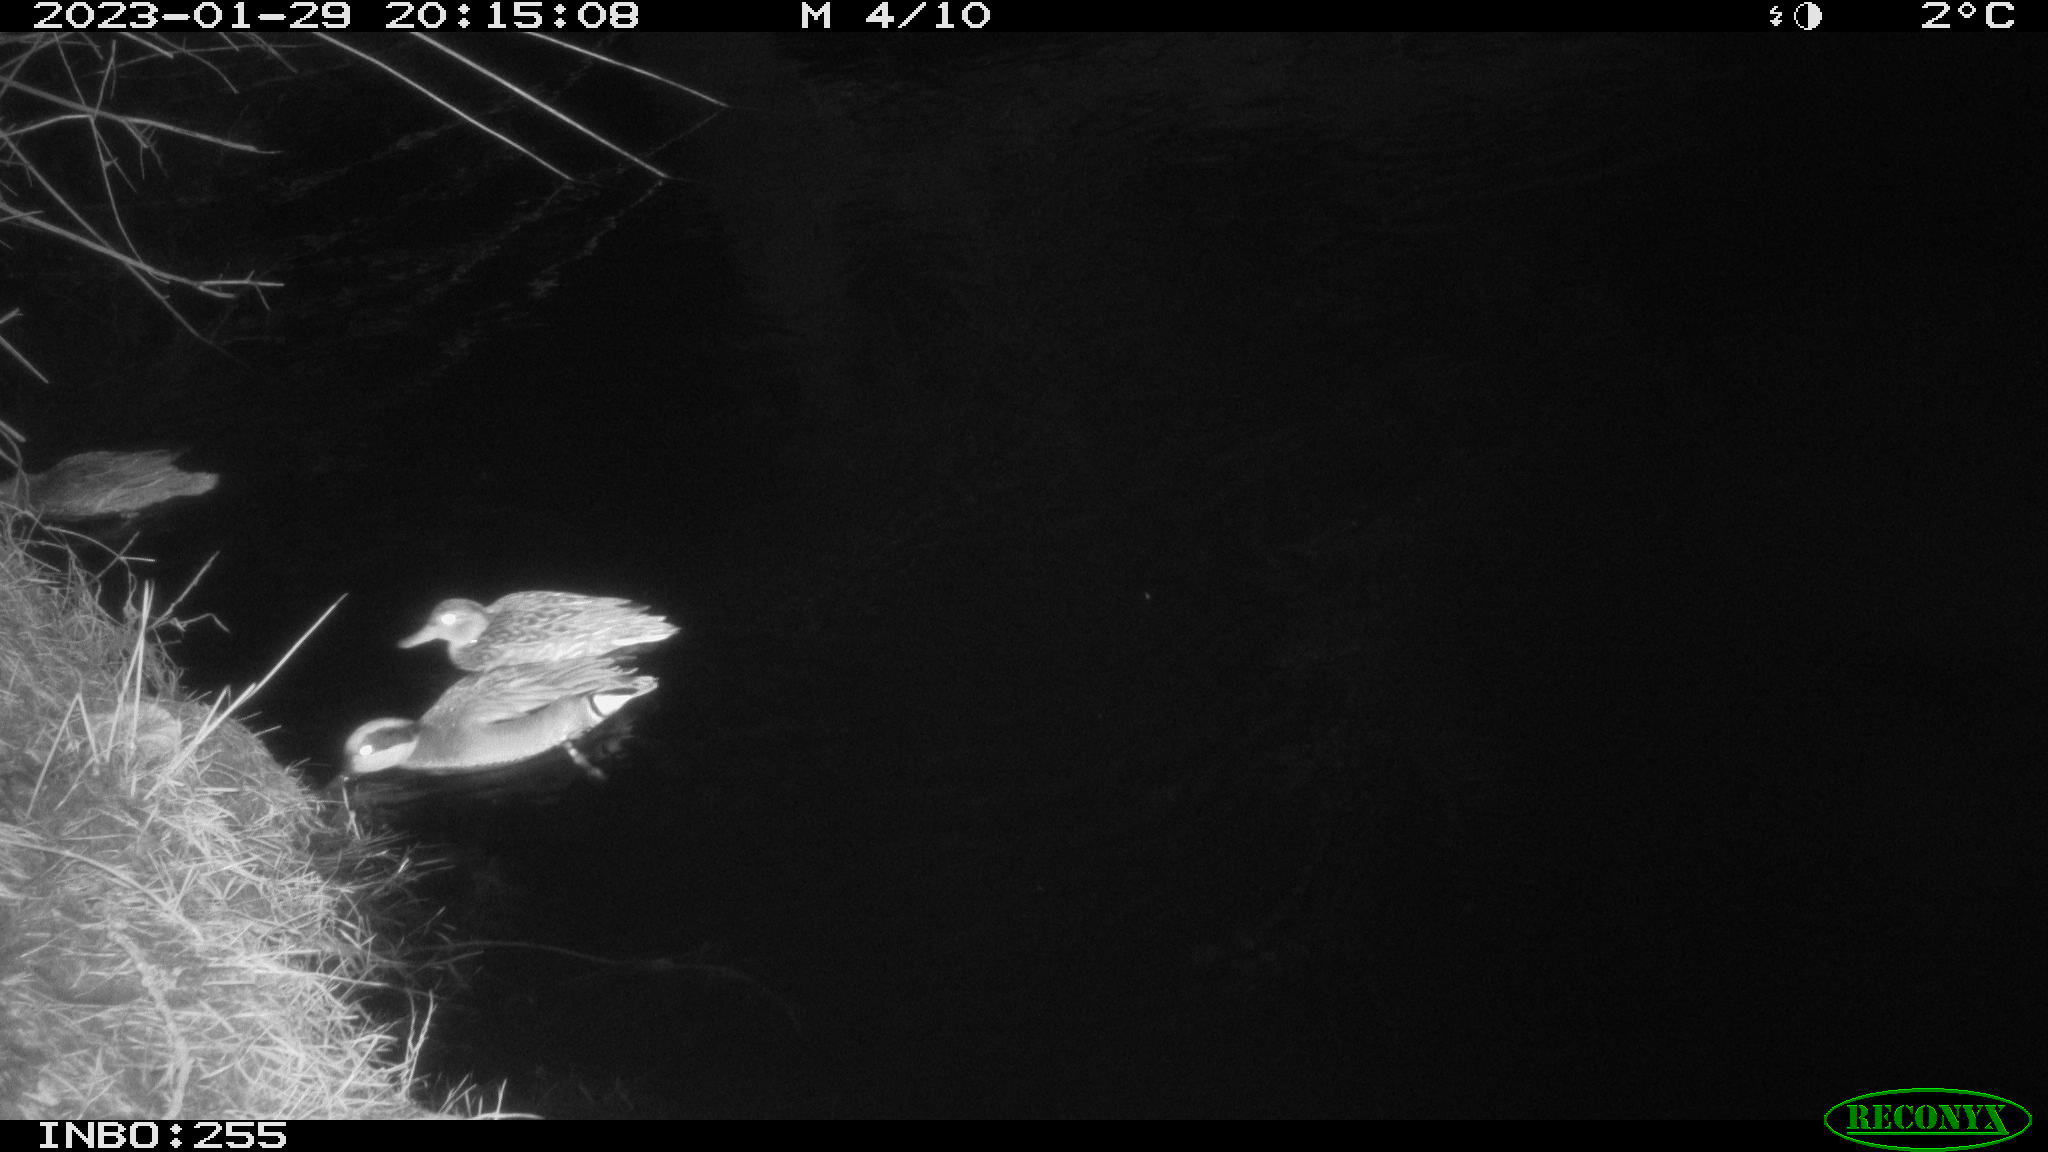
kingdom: Animalia
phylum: Chordata
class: Aves
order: Anseriformes
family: Anatidae
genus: Anas
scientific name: Anas
